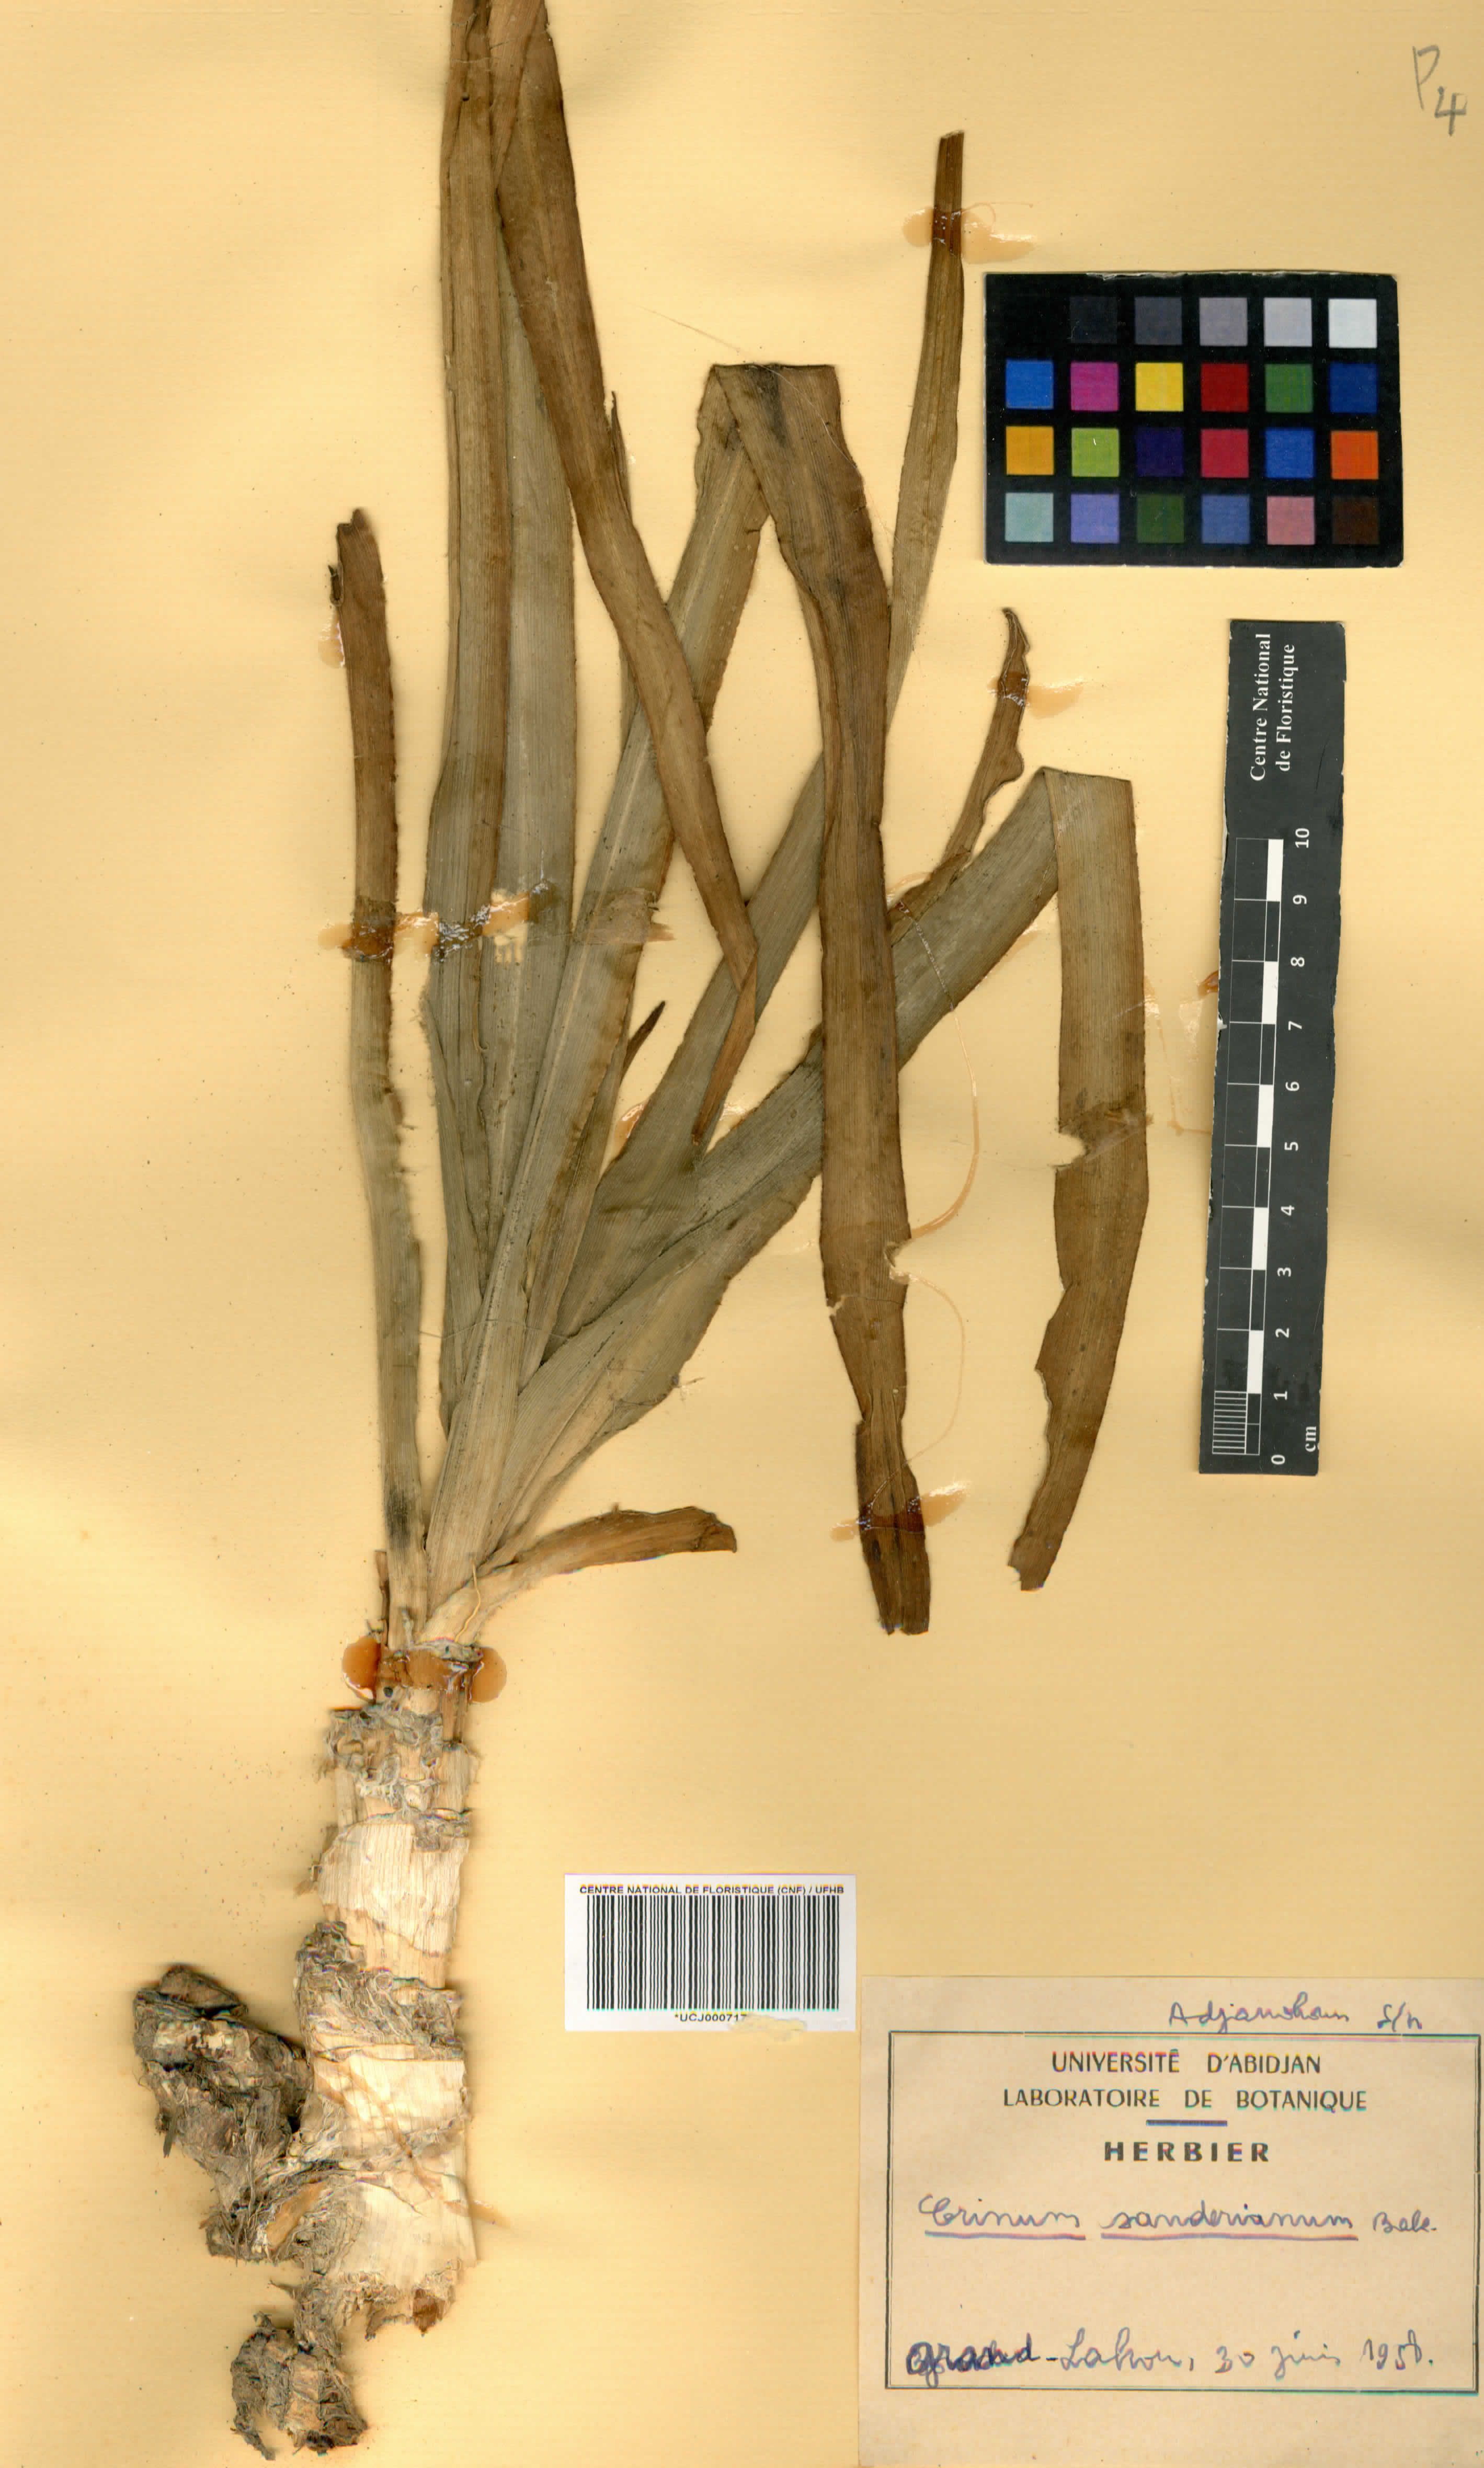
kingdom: Plantae
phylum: Tracheophyta
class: Liliopsida
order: Asparagales
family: Amaryllidaceae
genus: Crinum
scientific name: Crinum ornatum
